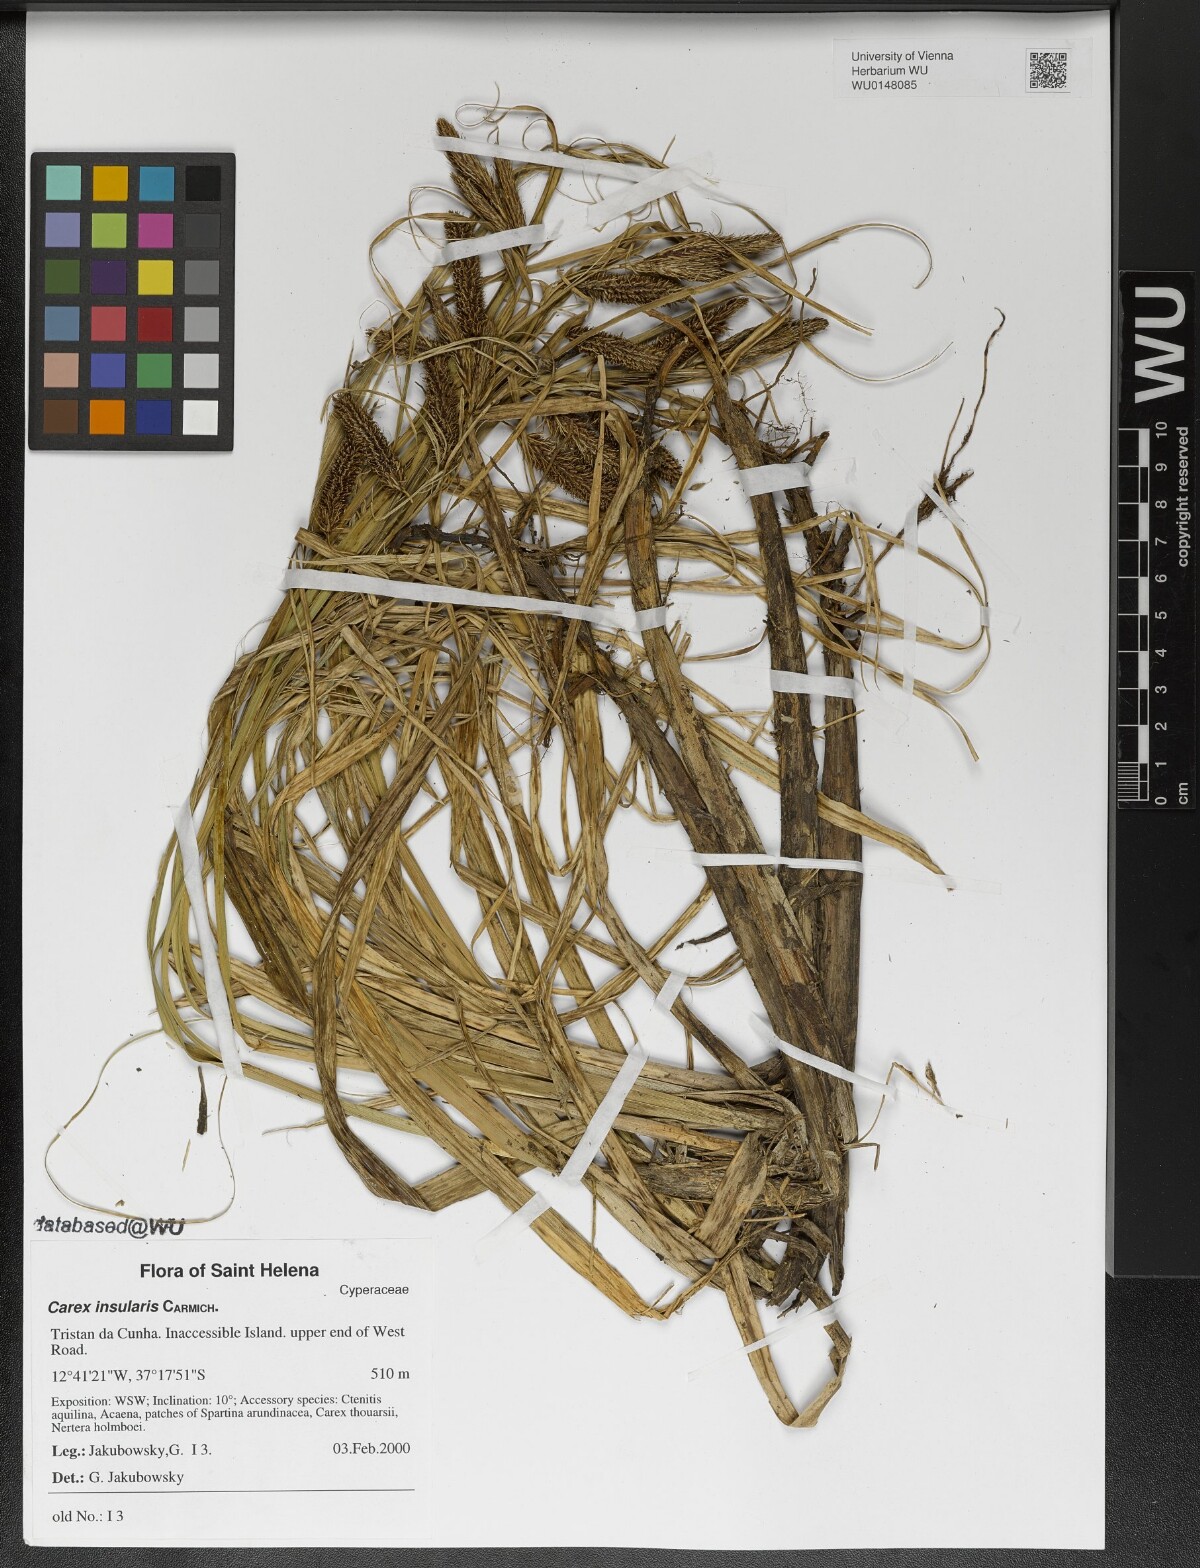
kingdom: Plantae
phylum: Tracheophyta
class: Liliopsida
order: Poales
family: Cyperaceae
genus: Carex
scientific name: Carex insularis
